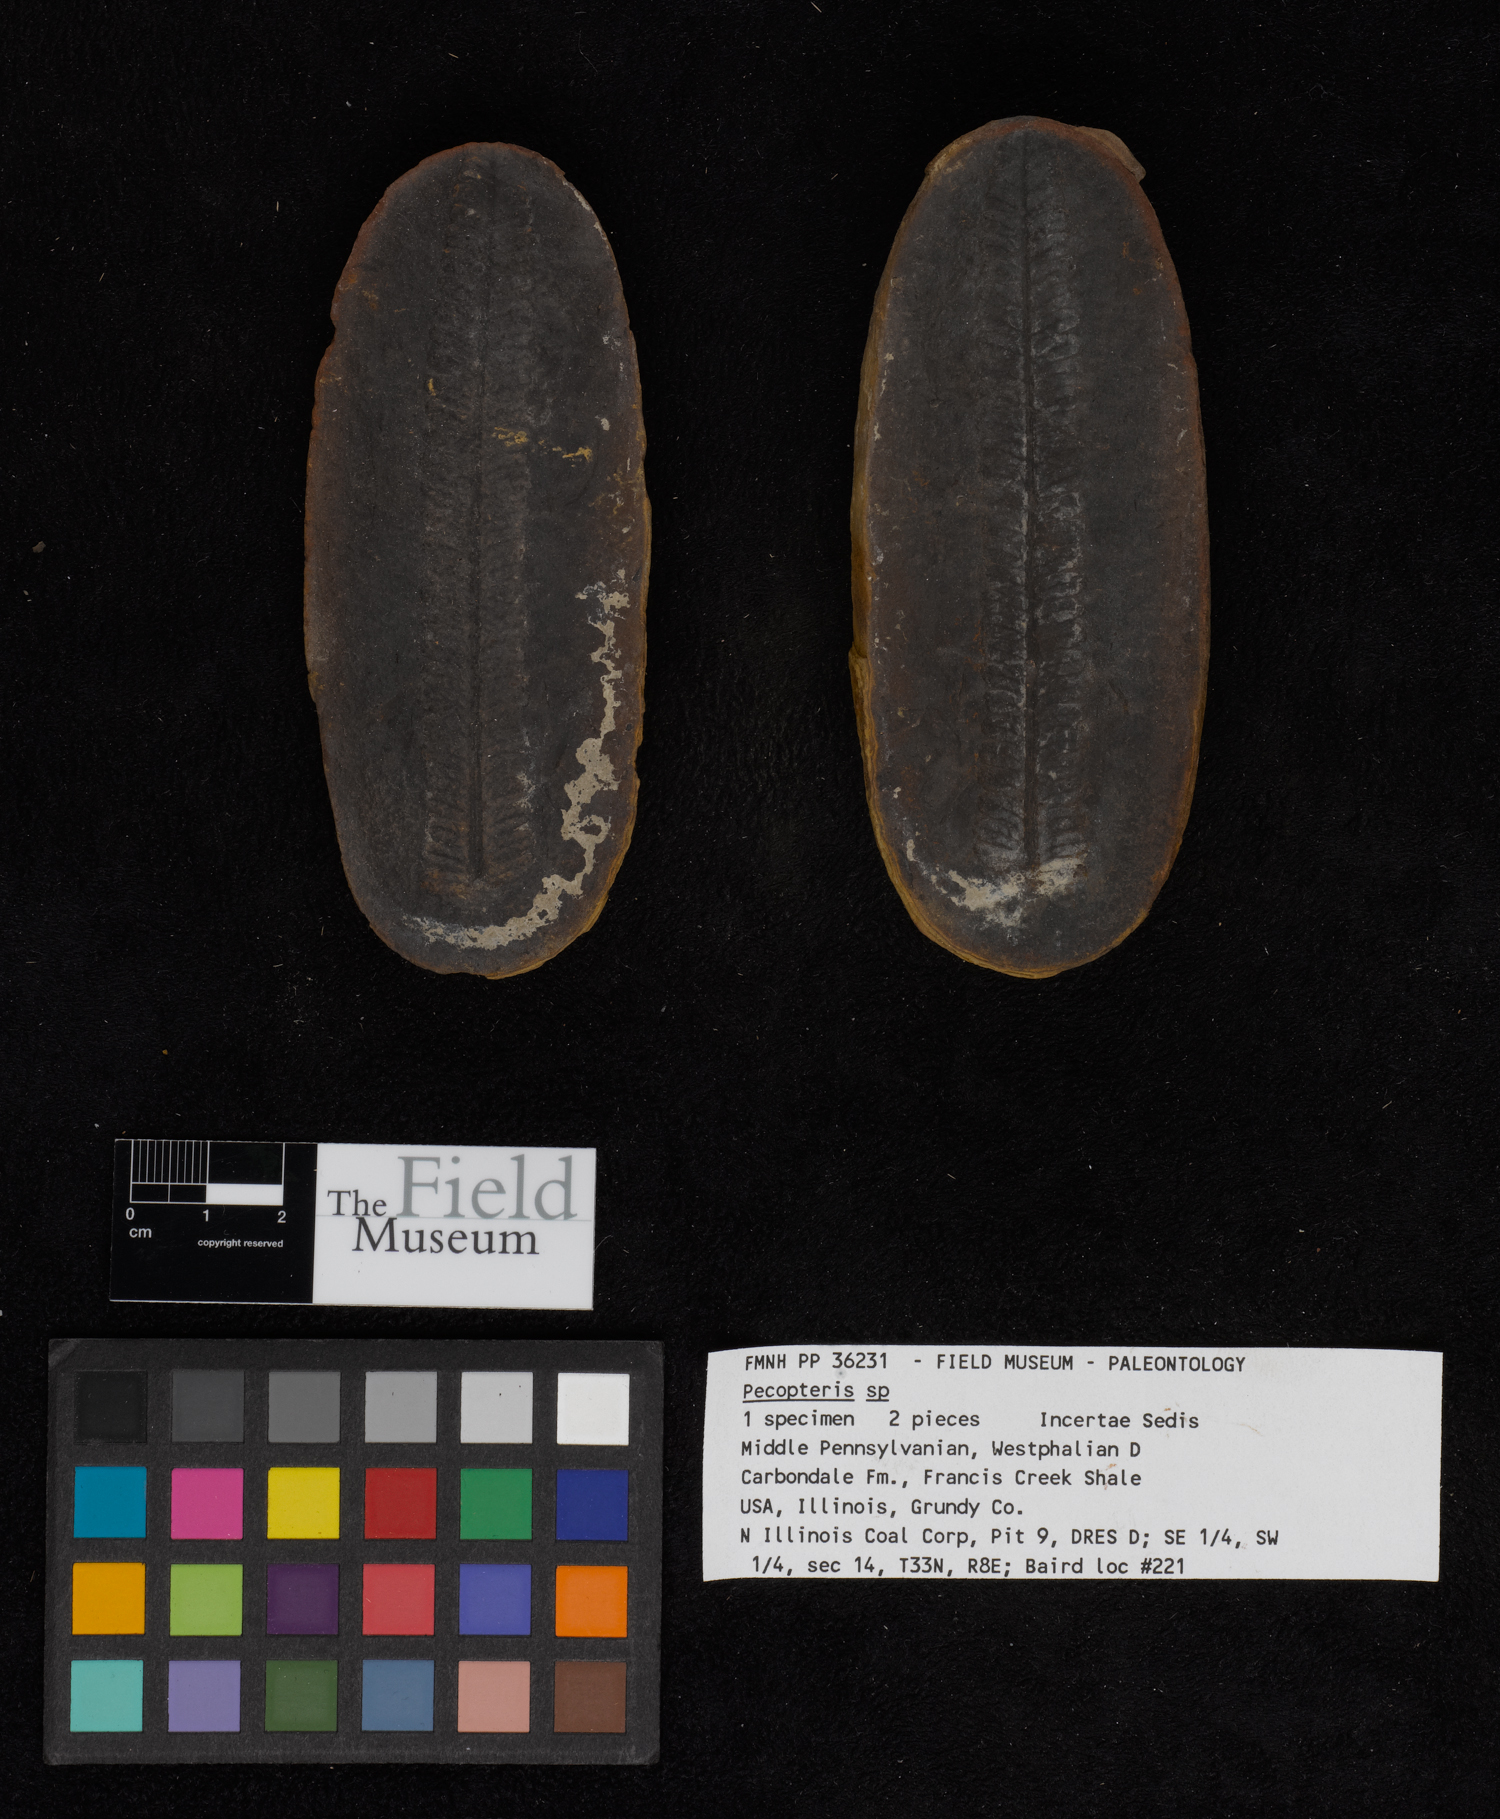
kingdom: Plantae
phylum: Tracheophyta
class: Polypodiopsida
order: Marattiales
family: Asterothecaceae
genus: Pecopteris
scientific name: Pecopteris
